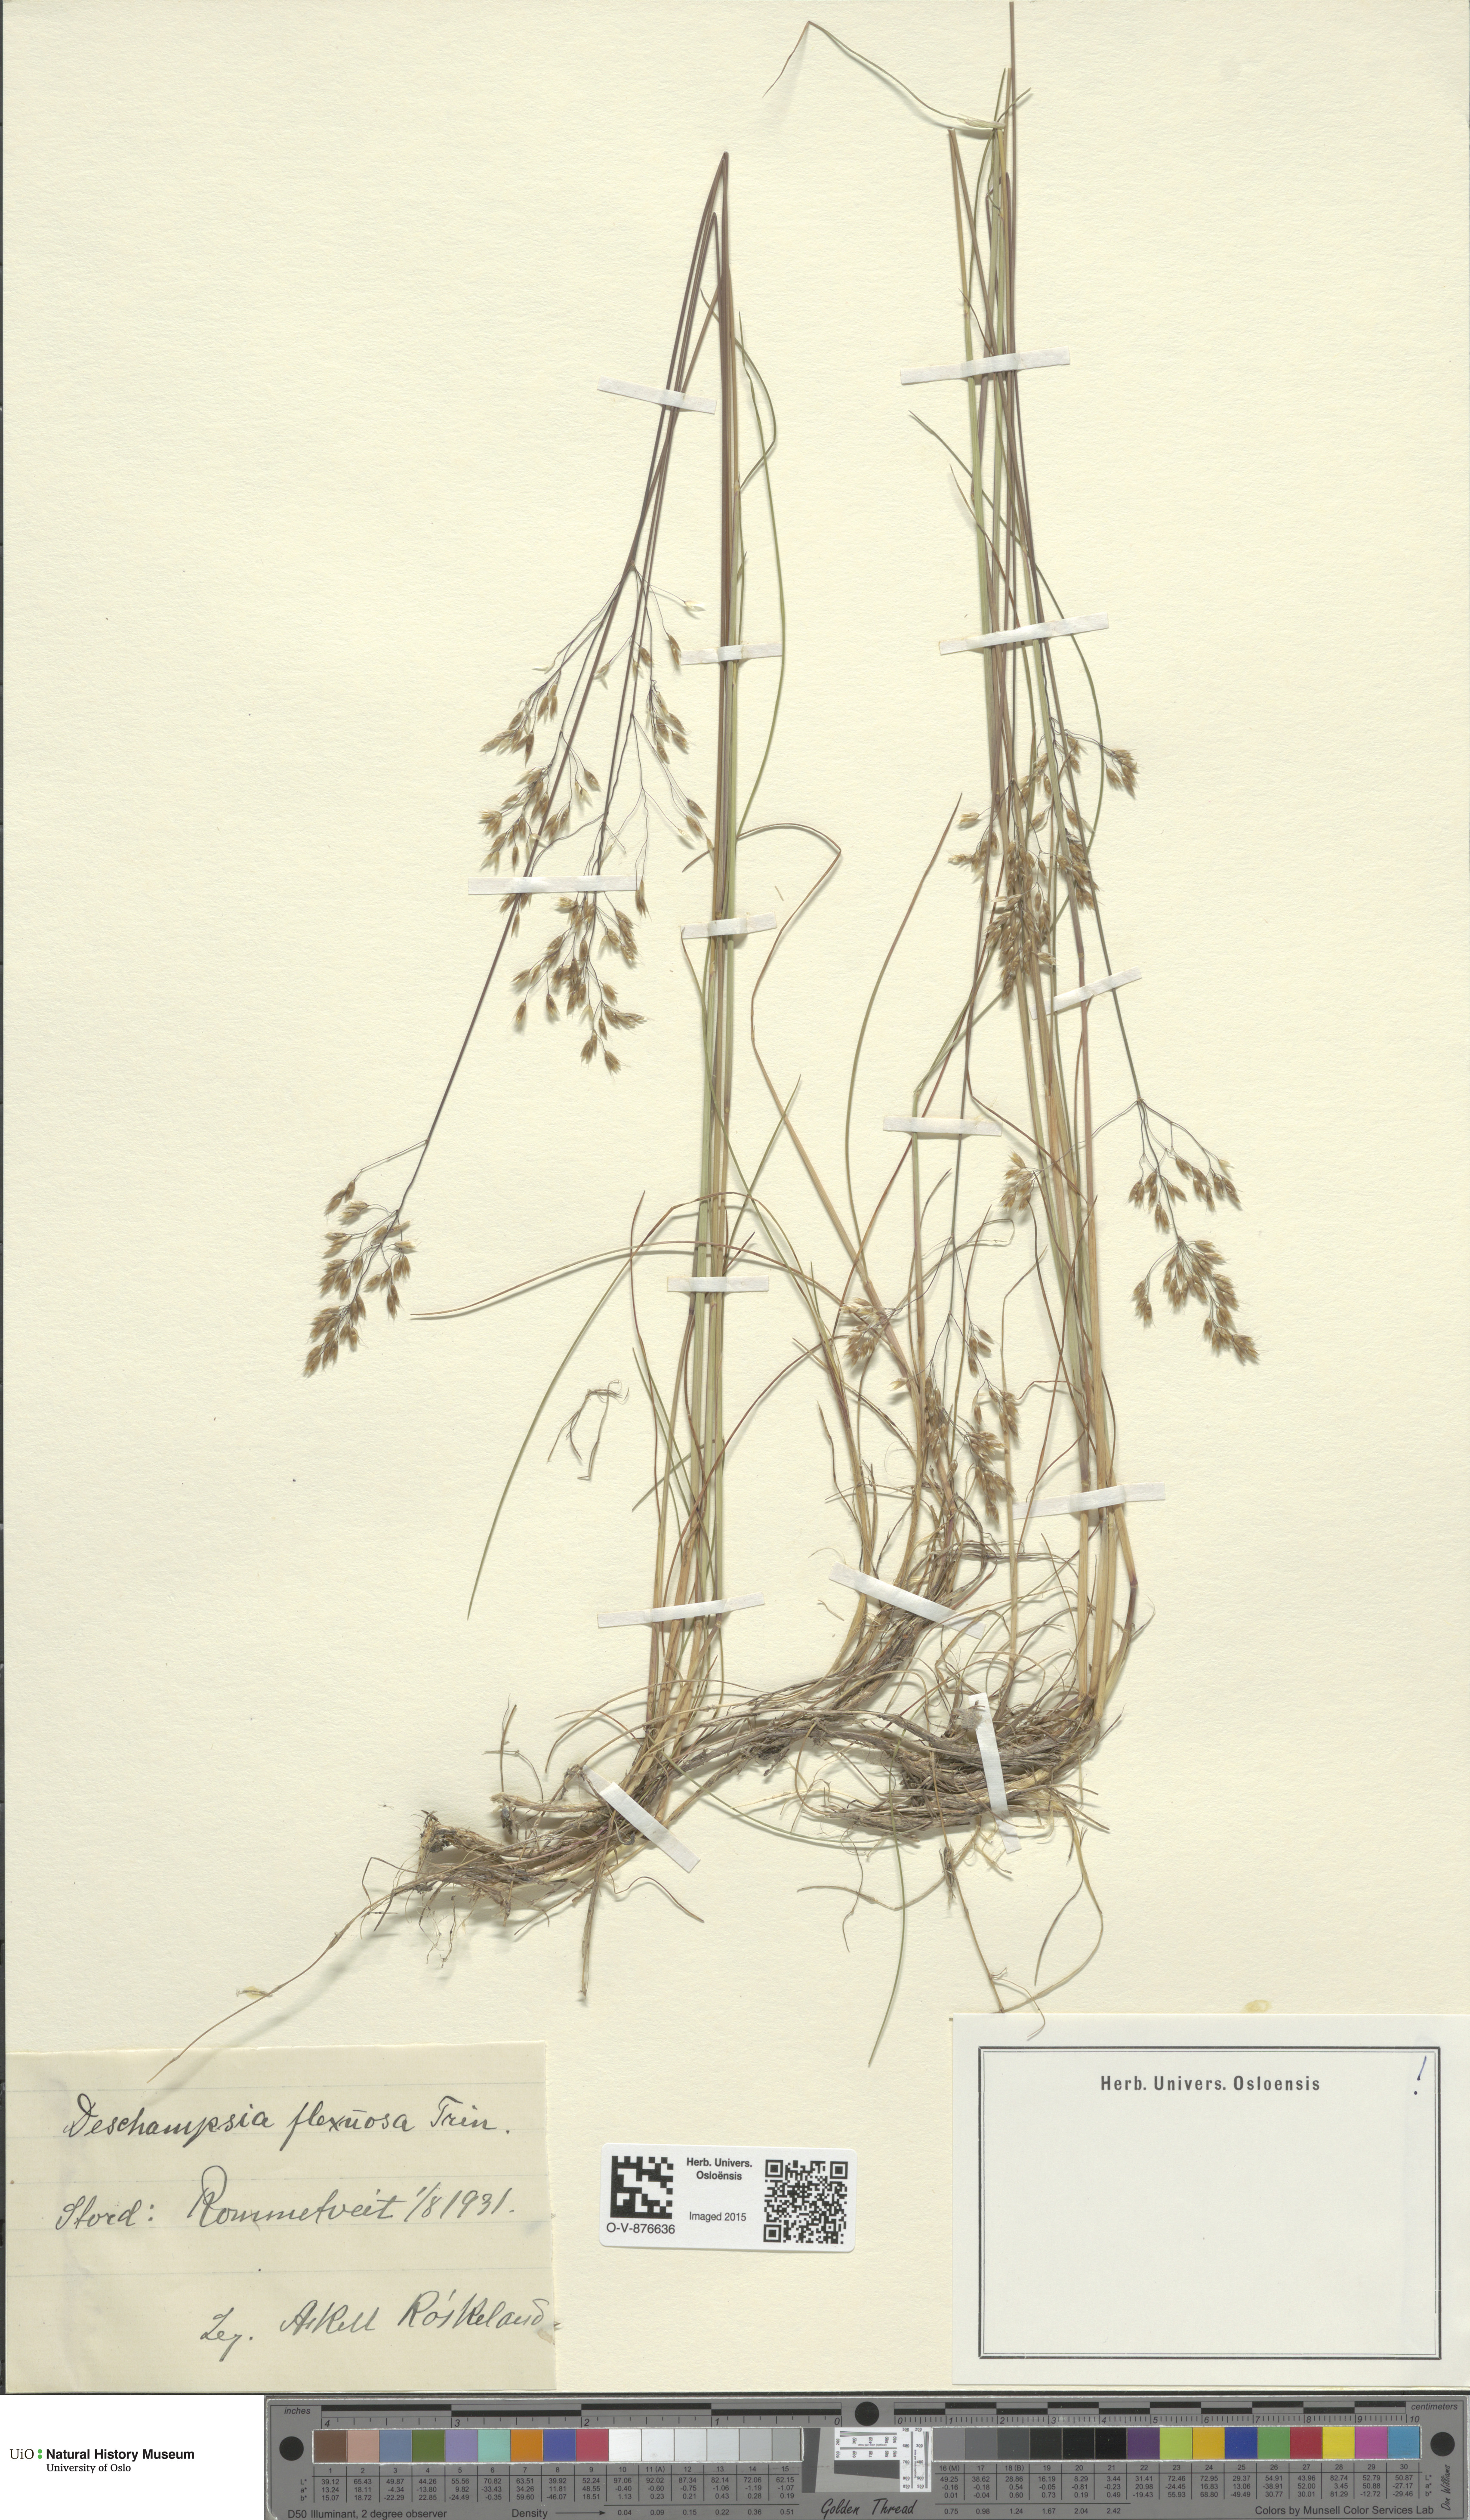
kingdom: Plantae
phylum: Tracheophyta
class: Liliopsida
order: Poales
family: Poaceae
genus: Avenella
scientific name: Avenella flexuosa
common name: Wavy hairgrass
